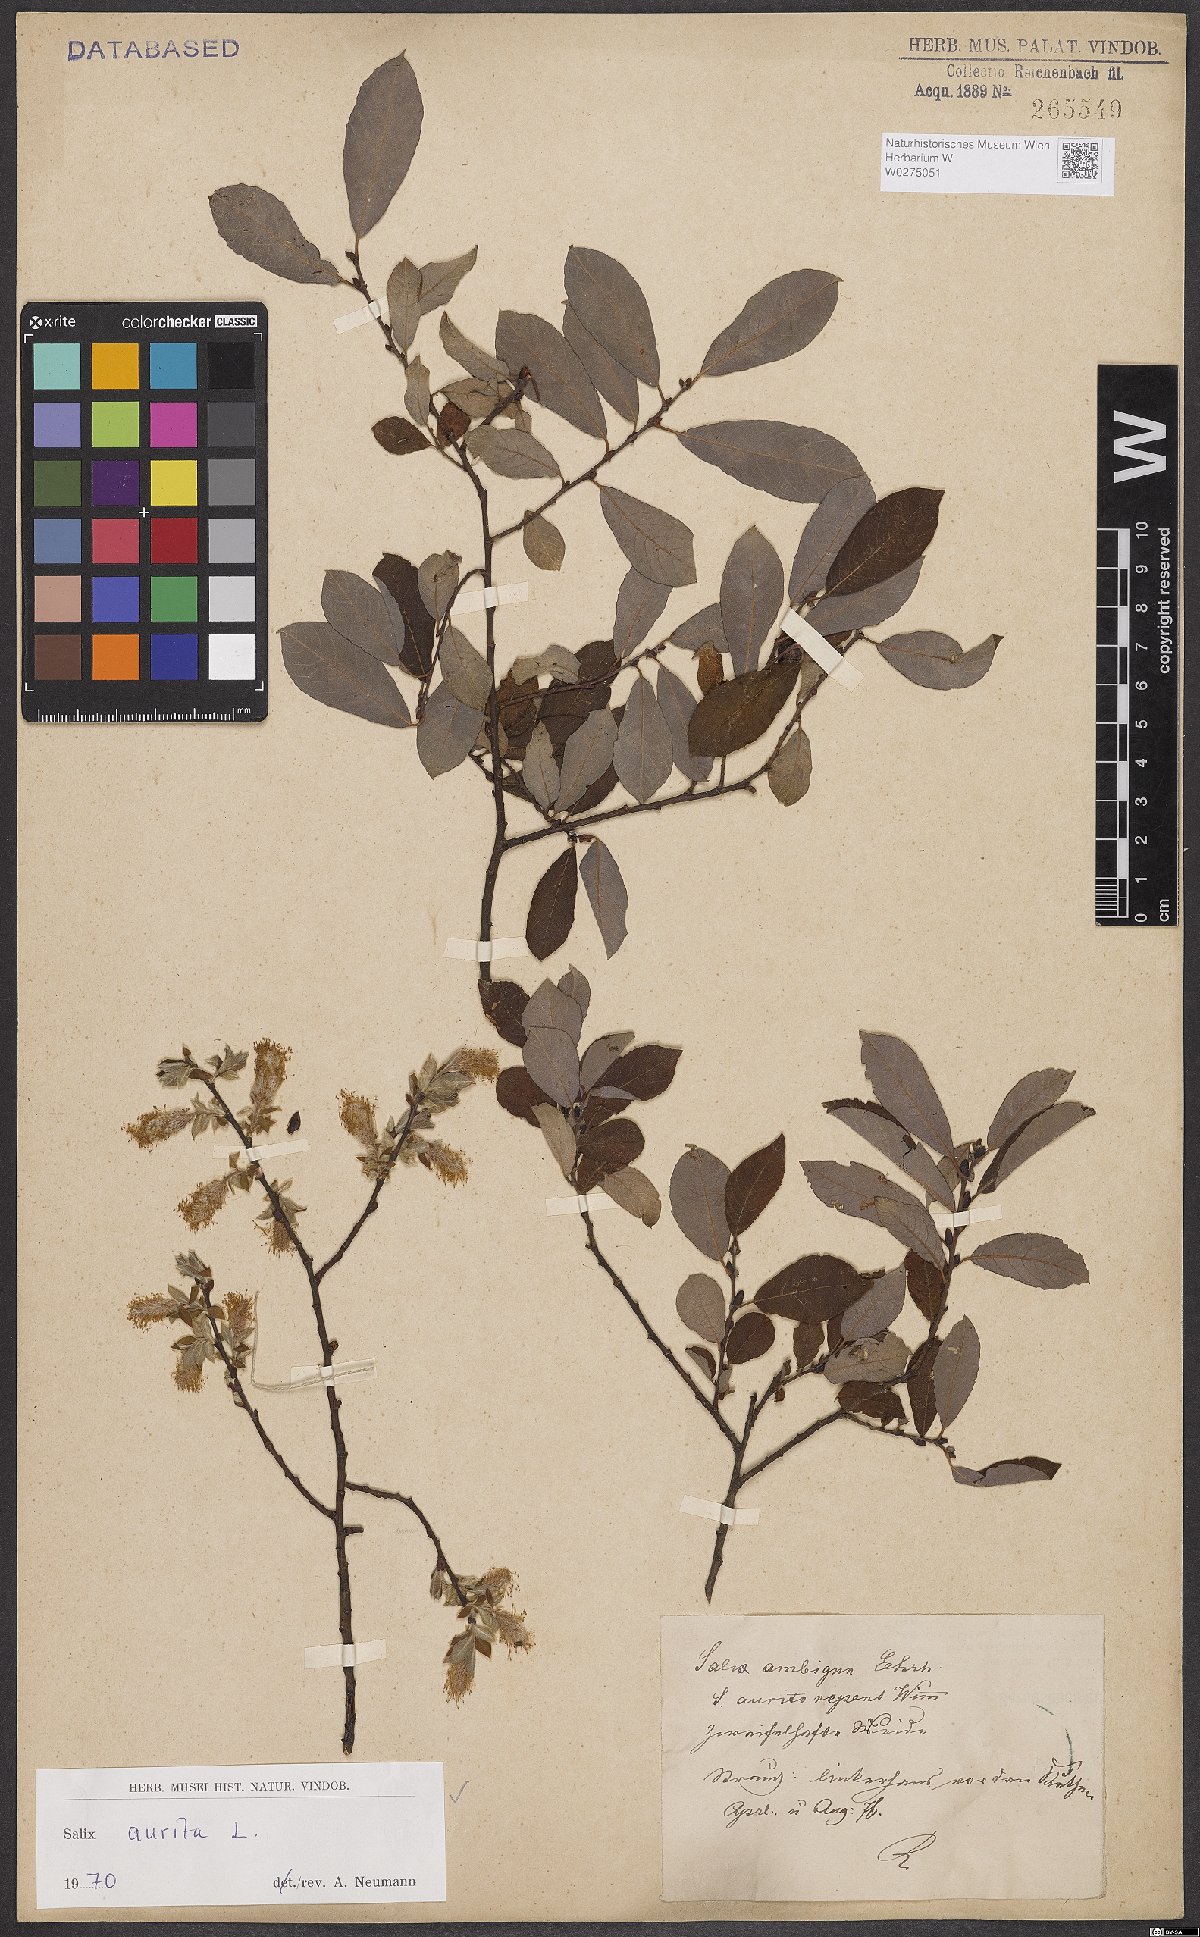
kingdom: Plantae
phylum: Tracheophyta
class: Magnoliopsida
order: Malpighiales
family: Salicaceae
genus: Salix
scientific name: Salix aurita
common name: Eared willow
